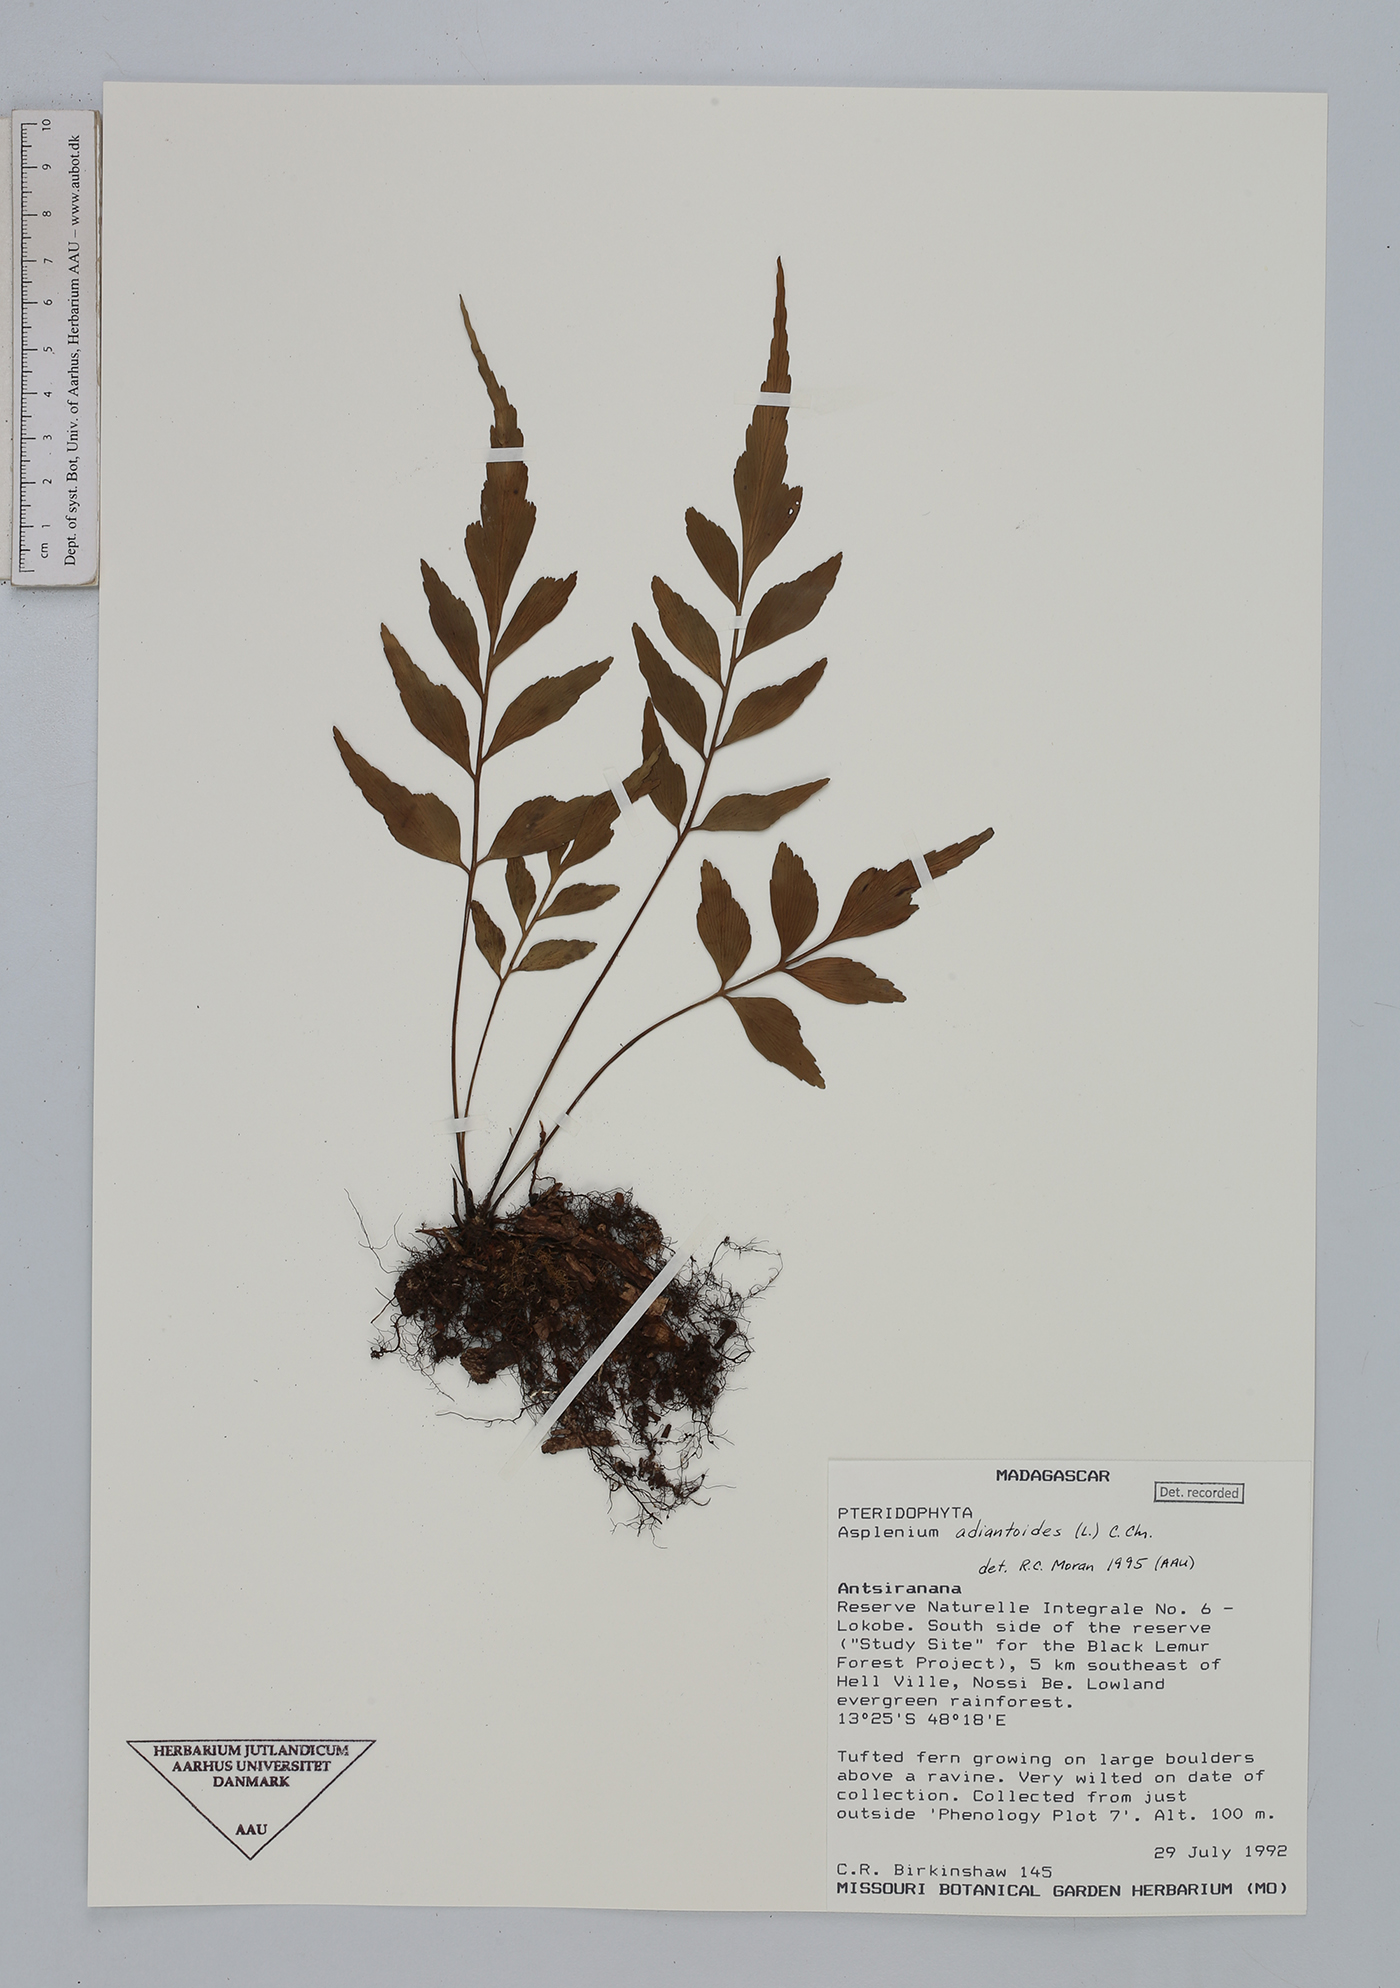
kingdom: Plantae
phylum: Tracheophyta
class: Polypodiopsida
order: Polypodiales
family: Aspleniaceae
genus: Asplenium
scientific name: Asplenium aethiopicum
